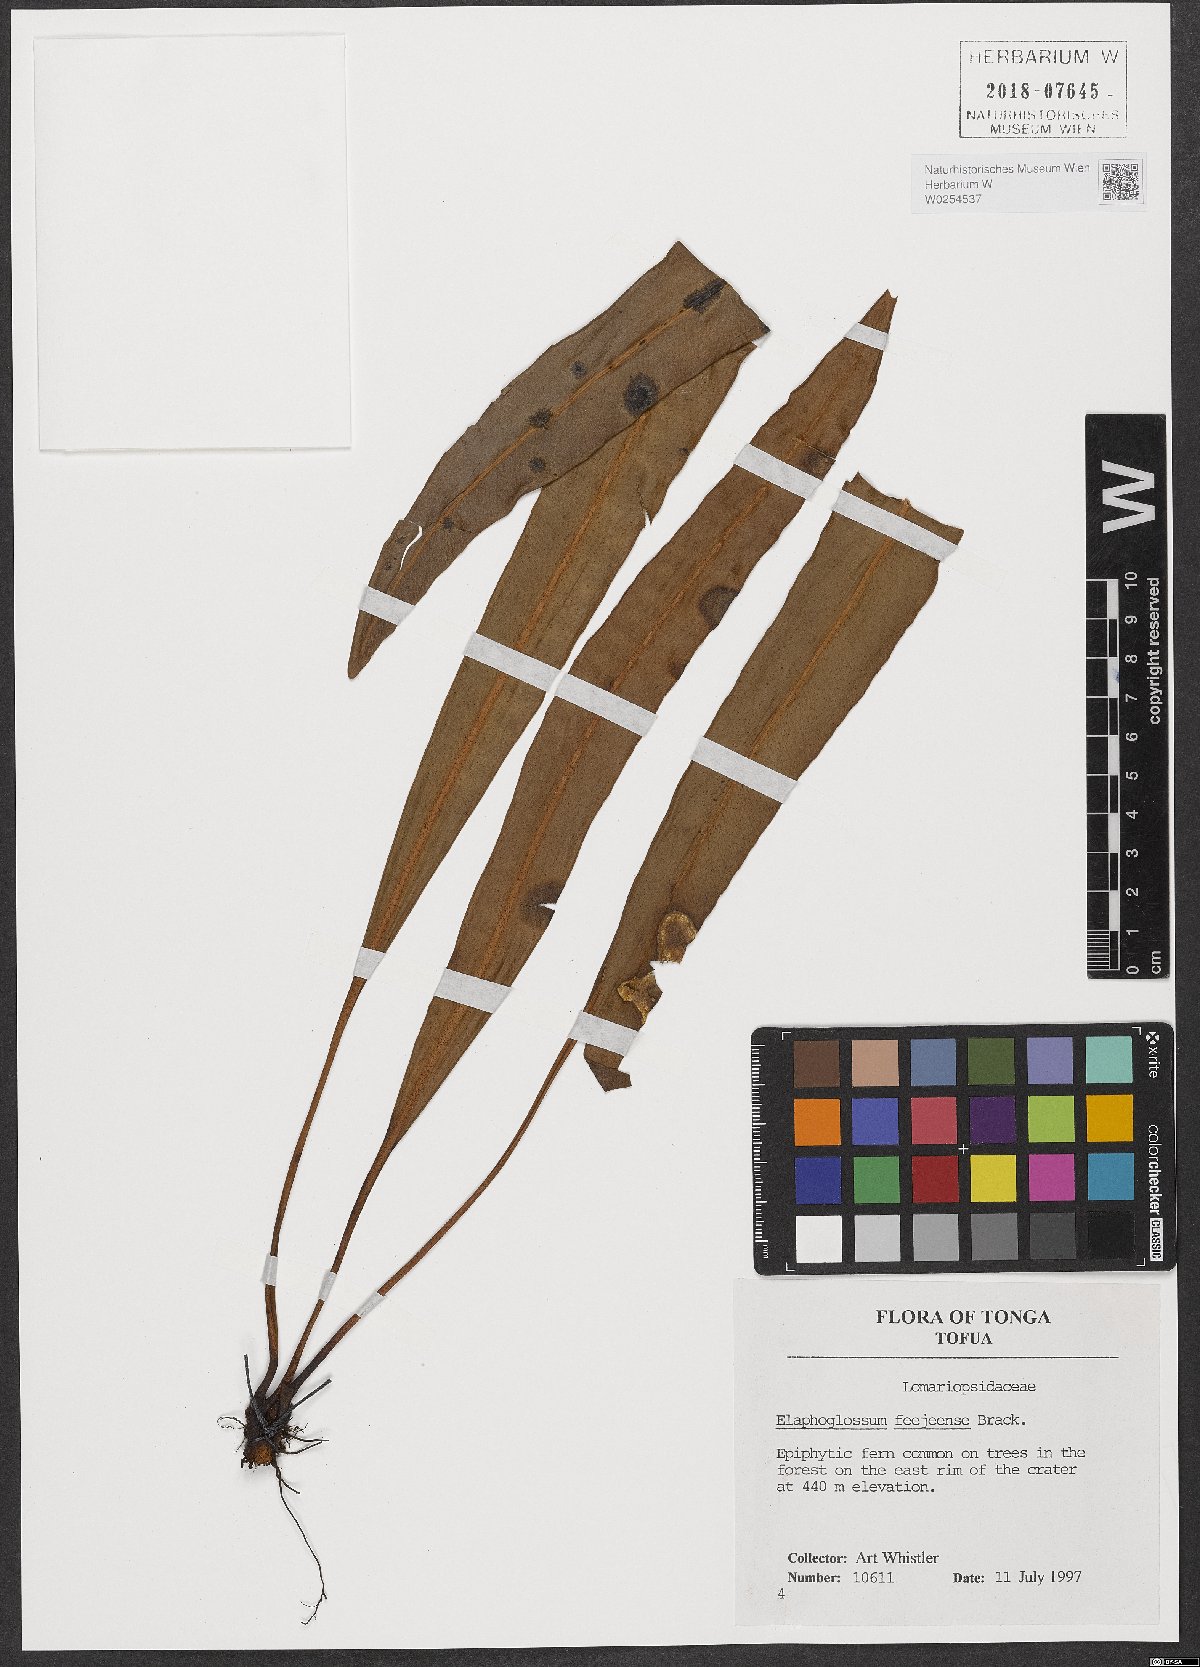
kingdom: Plantae
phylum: Tracheophyta
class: Polypodiopsida
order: Polypodiales
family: Dryopteridaceae
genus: Elaphoglossum
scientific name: Elaphoglossum feejeense
